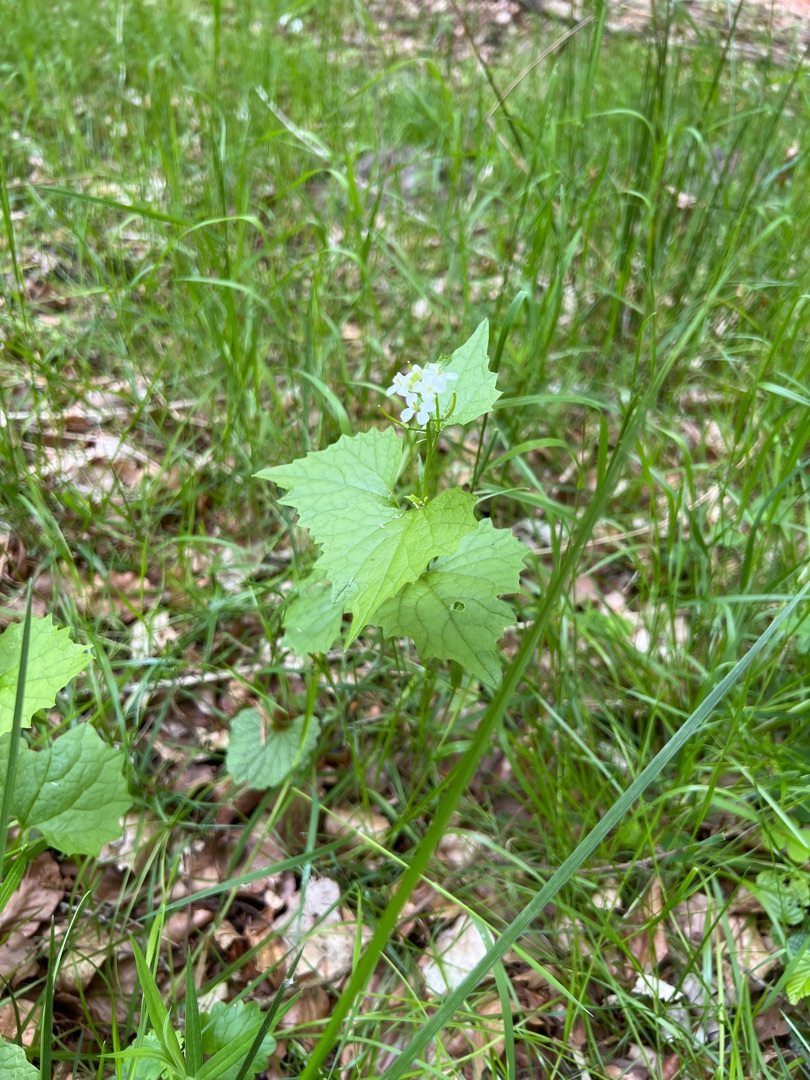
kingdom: Plantae
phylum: Tracheophyta
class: Magnoliopsida
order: Brassicales
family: Brassicaceae
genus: Alliaria
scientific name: Alliaria petiolata
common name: Løgkarse
